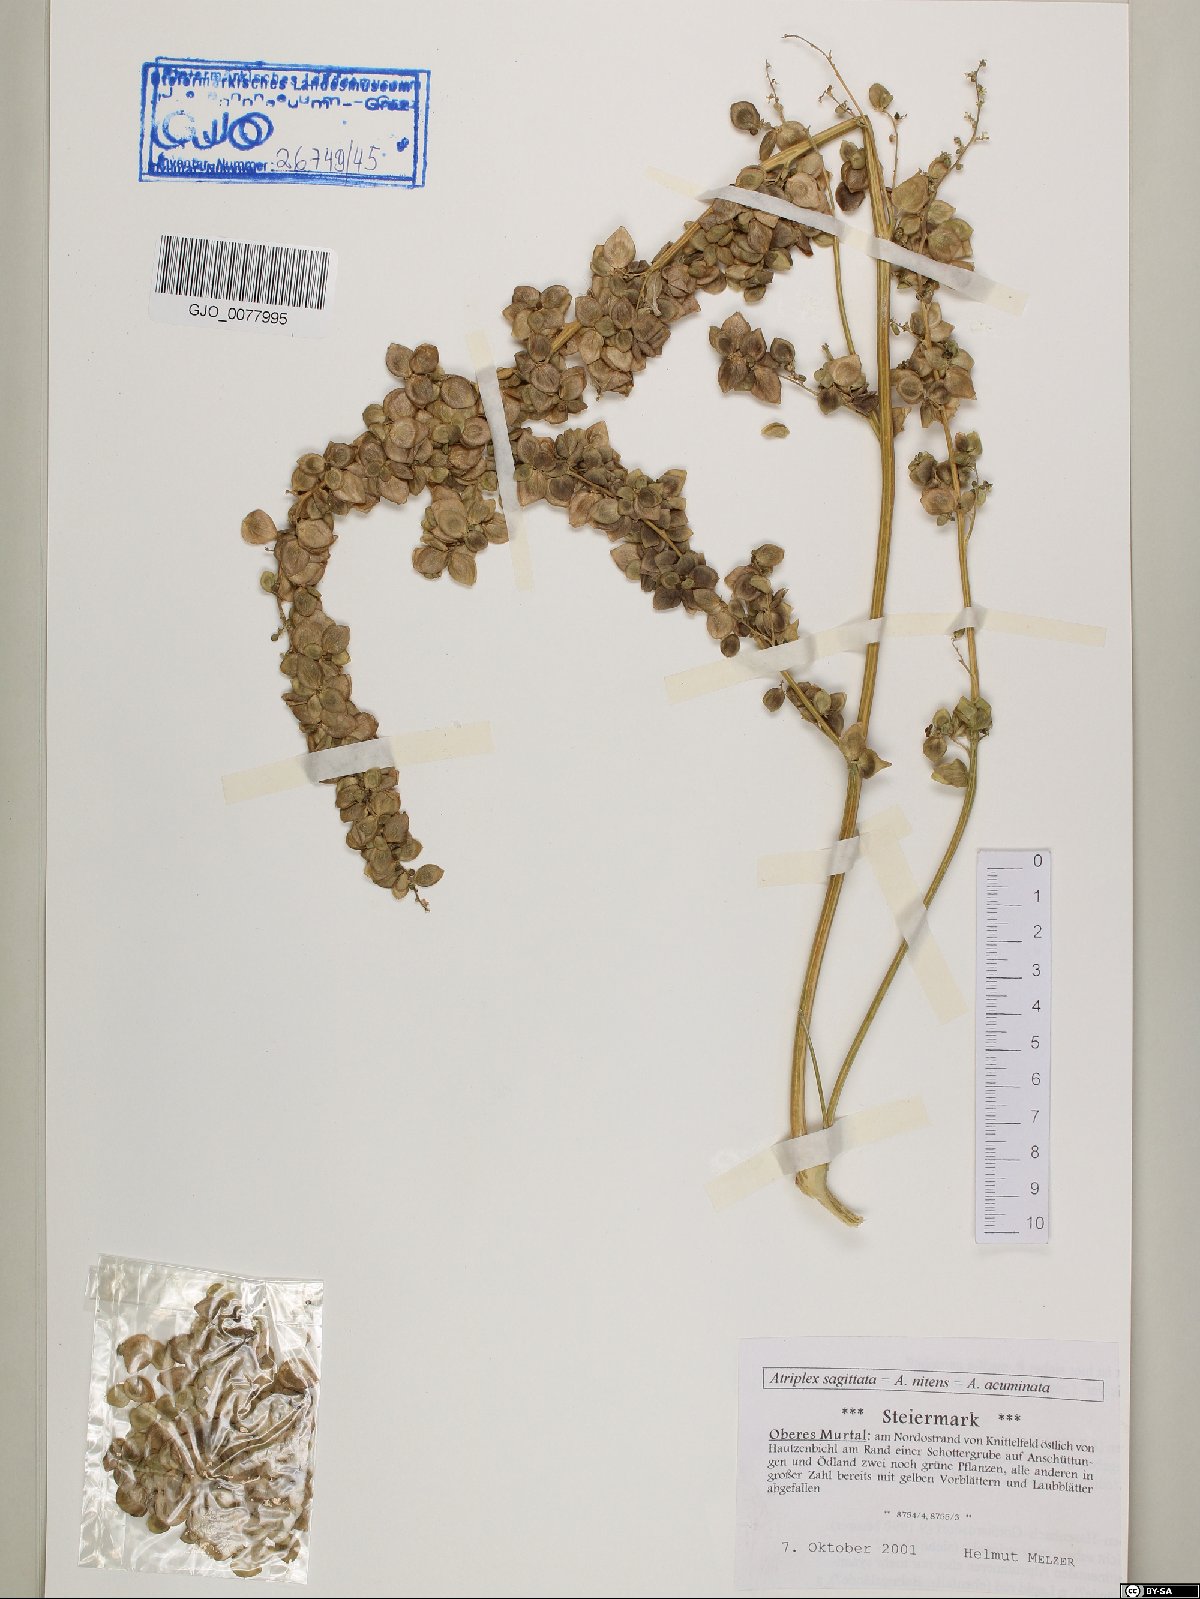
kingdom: Plantae
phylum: Tracheophyta
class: Magnoliopsida
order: Caryophyllales
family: Amaranthaceae
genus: Atriplex
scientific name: Atriplex sagittata
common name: Purple orache
